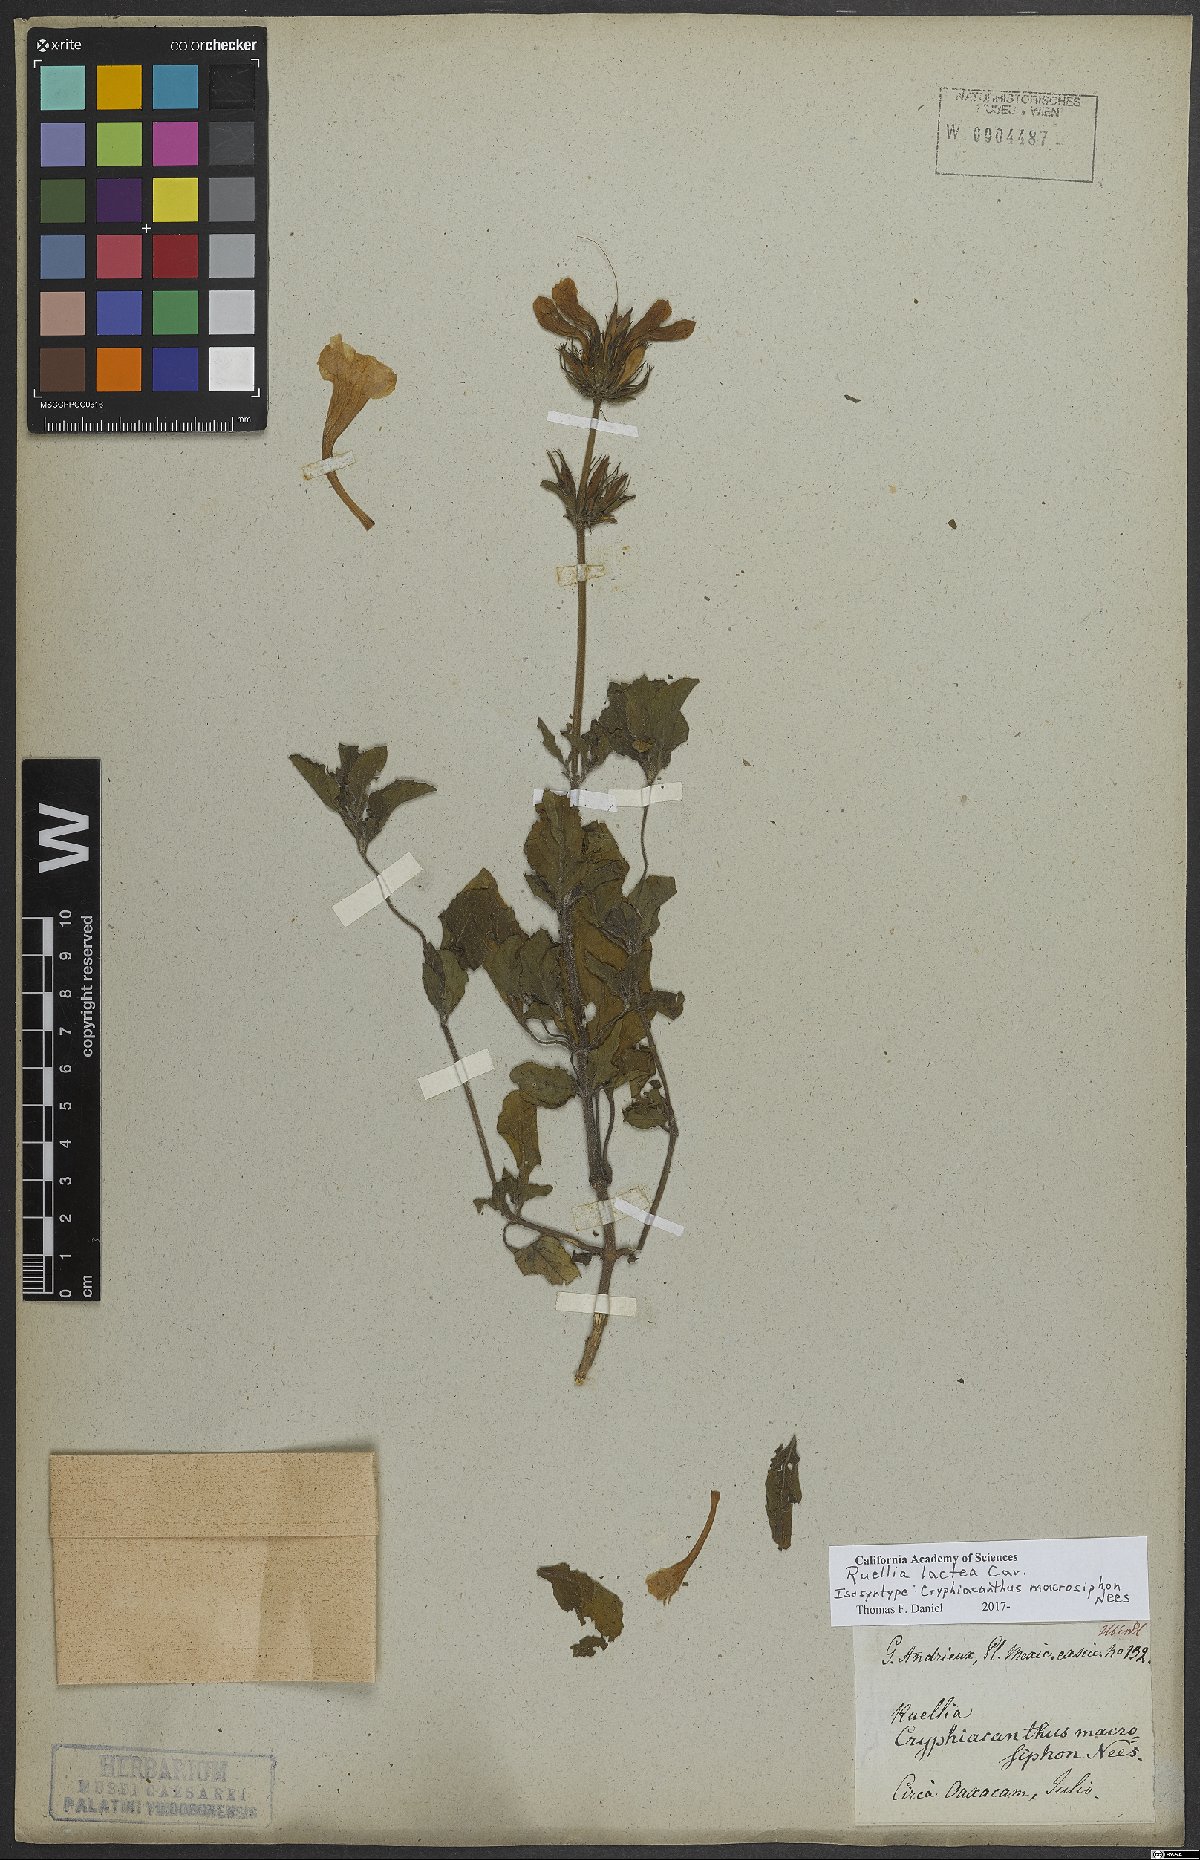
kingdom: Plantae
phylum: Tracheophyta
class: Magnoliopsida
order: Lamiales
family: Acanthaceae
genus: Ruellia
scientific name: Ruellia lactea
